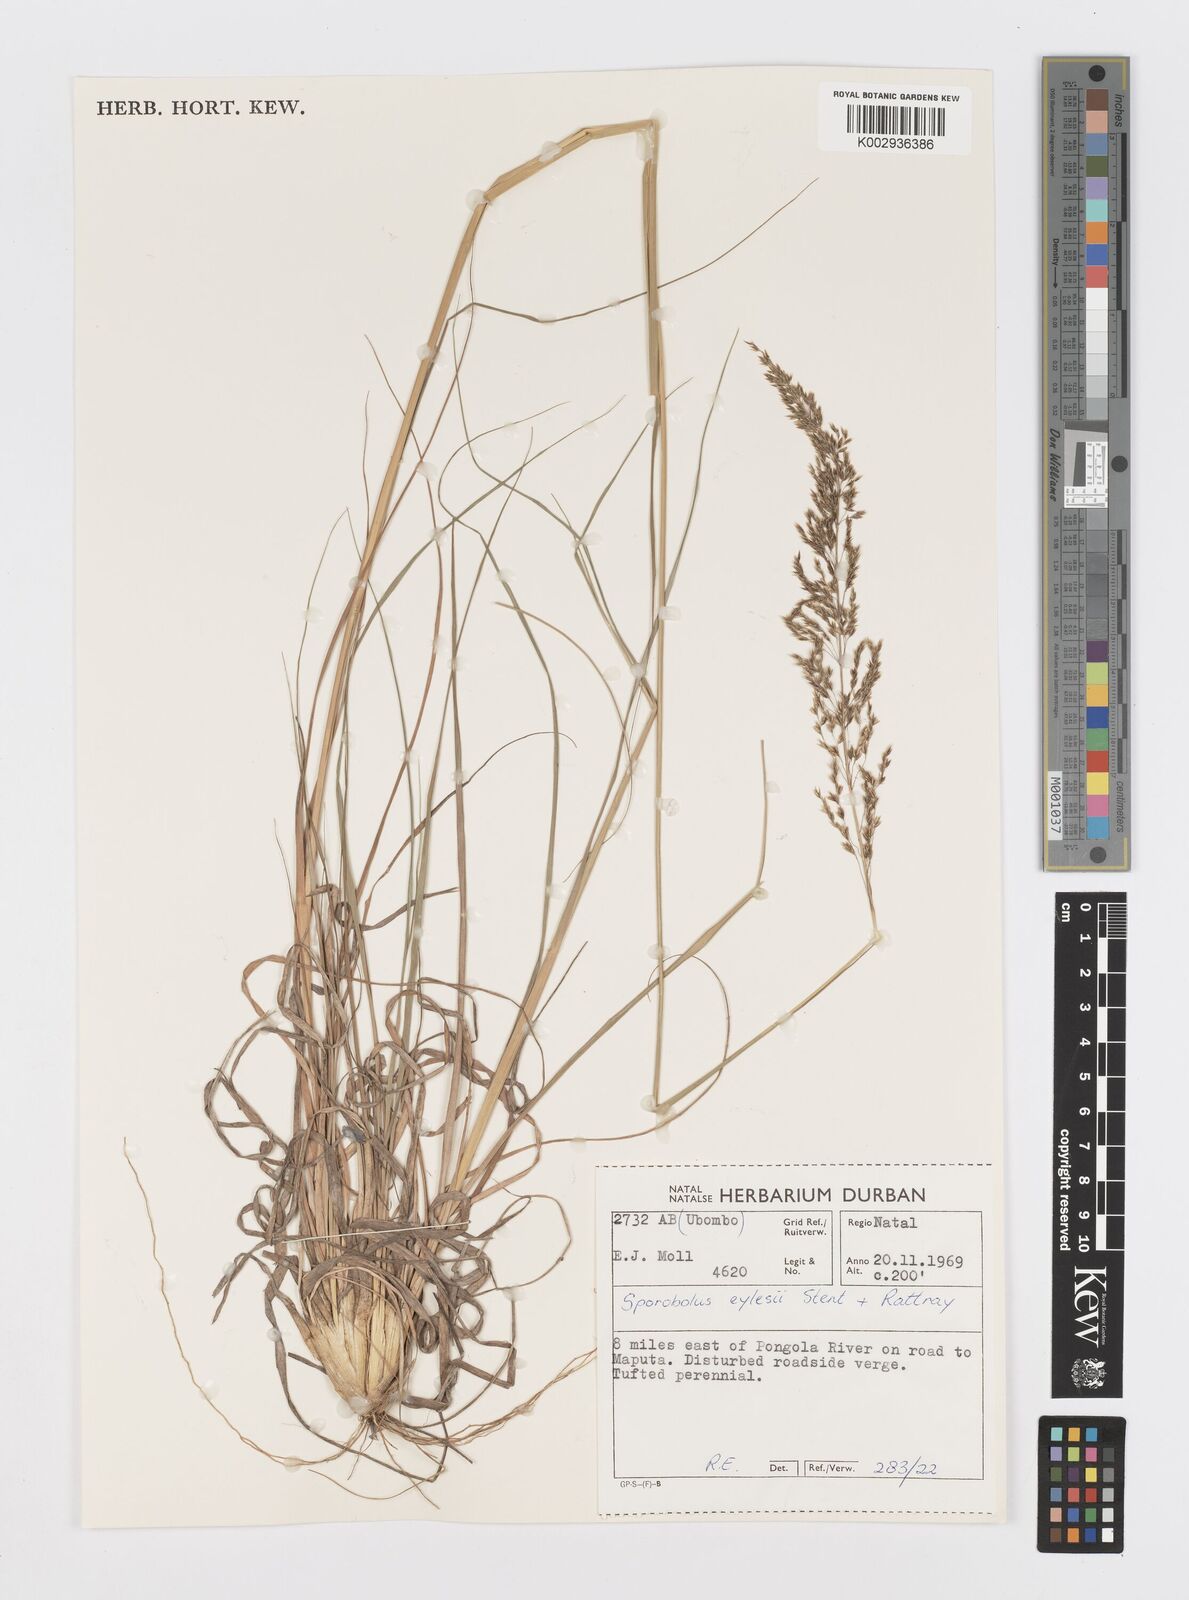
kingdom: Plantae
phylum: Tracheophyta
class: Liliopsida
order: Poales
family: Poaceae
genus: Sporobolus
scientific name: Sporobolus sanguineus
